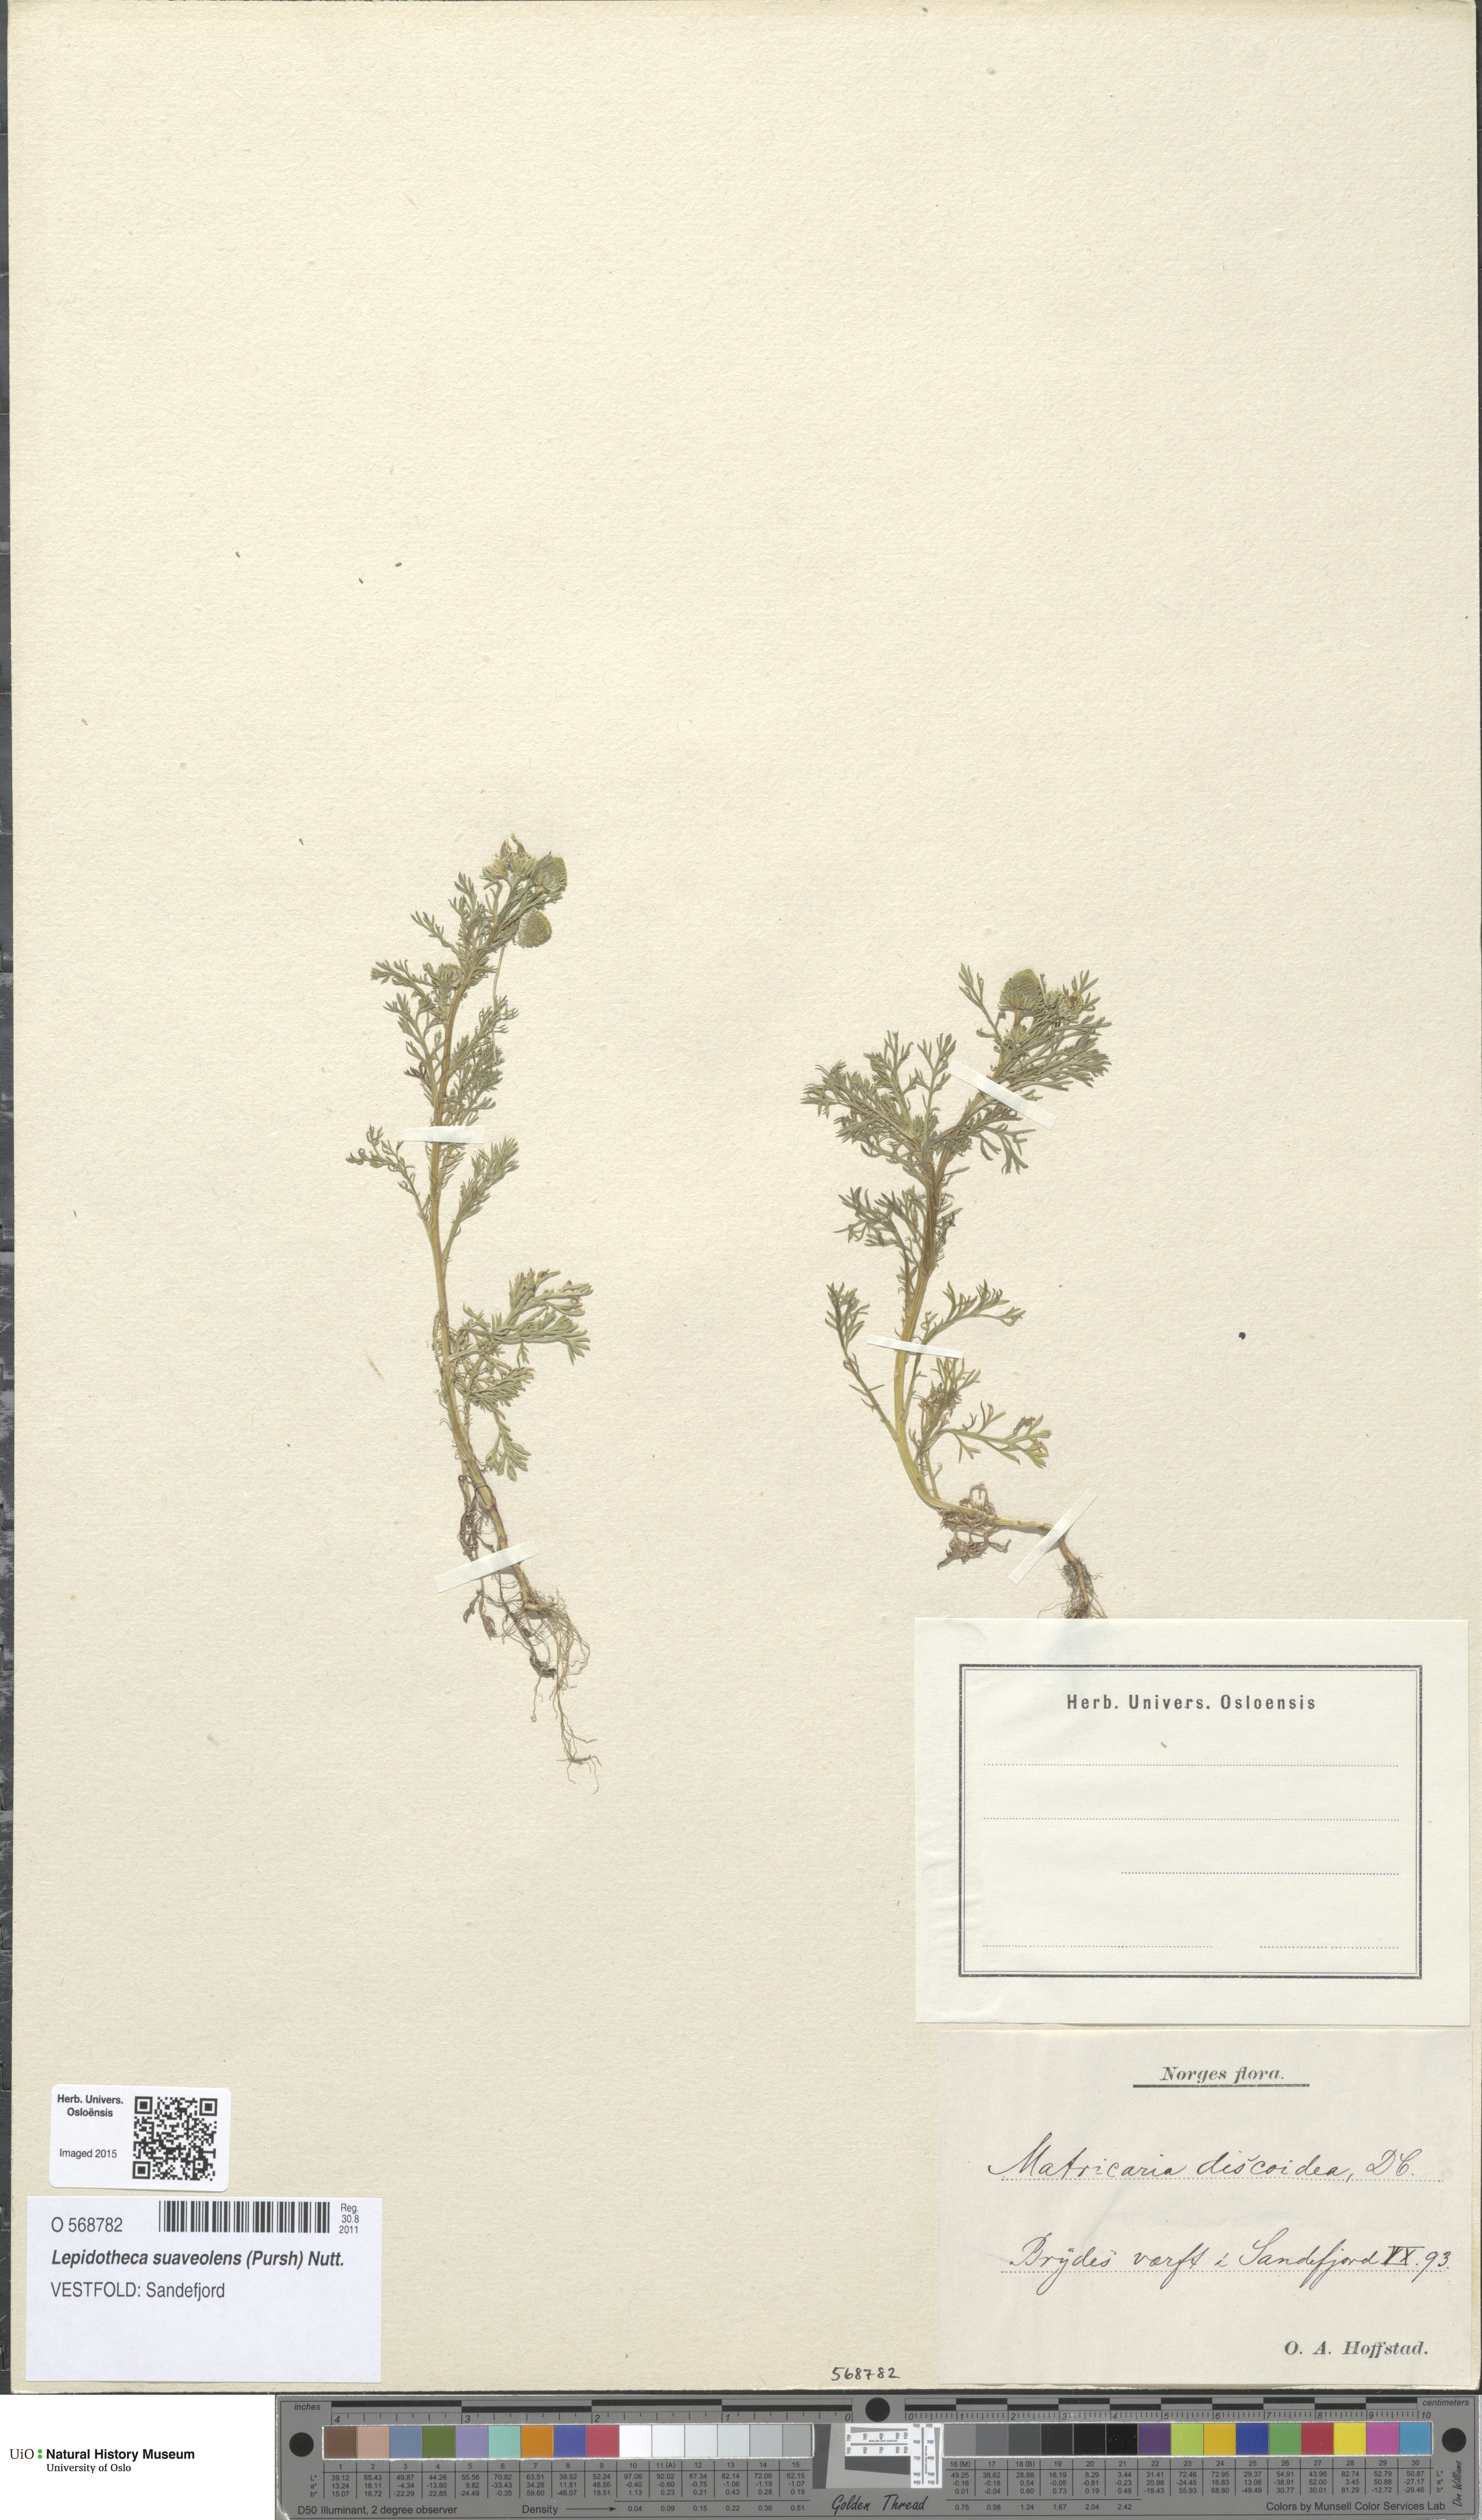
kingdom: Plantae
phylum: Tracheophyta
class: Magnoliopsida
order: Asterales
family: Asteraceae
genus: Matricaria
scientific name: Matricaria discoidea
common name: Disc mayweed
